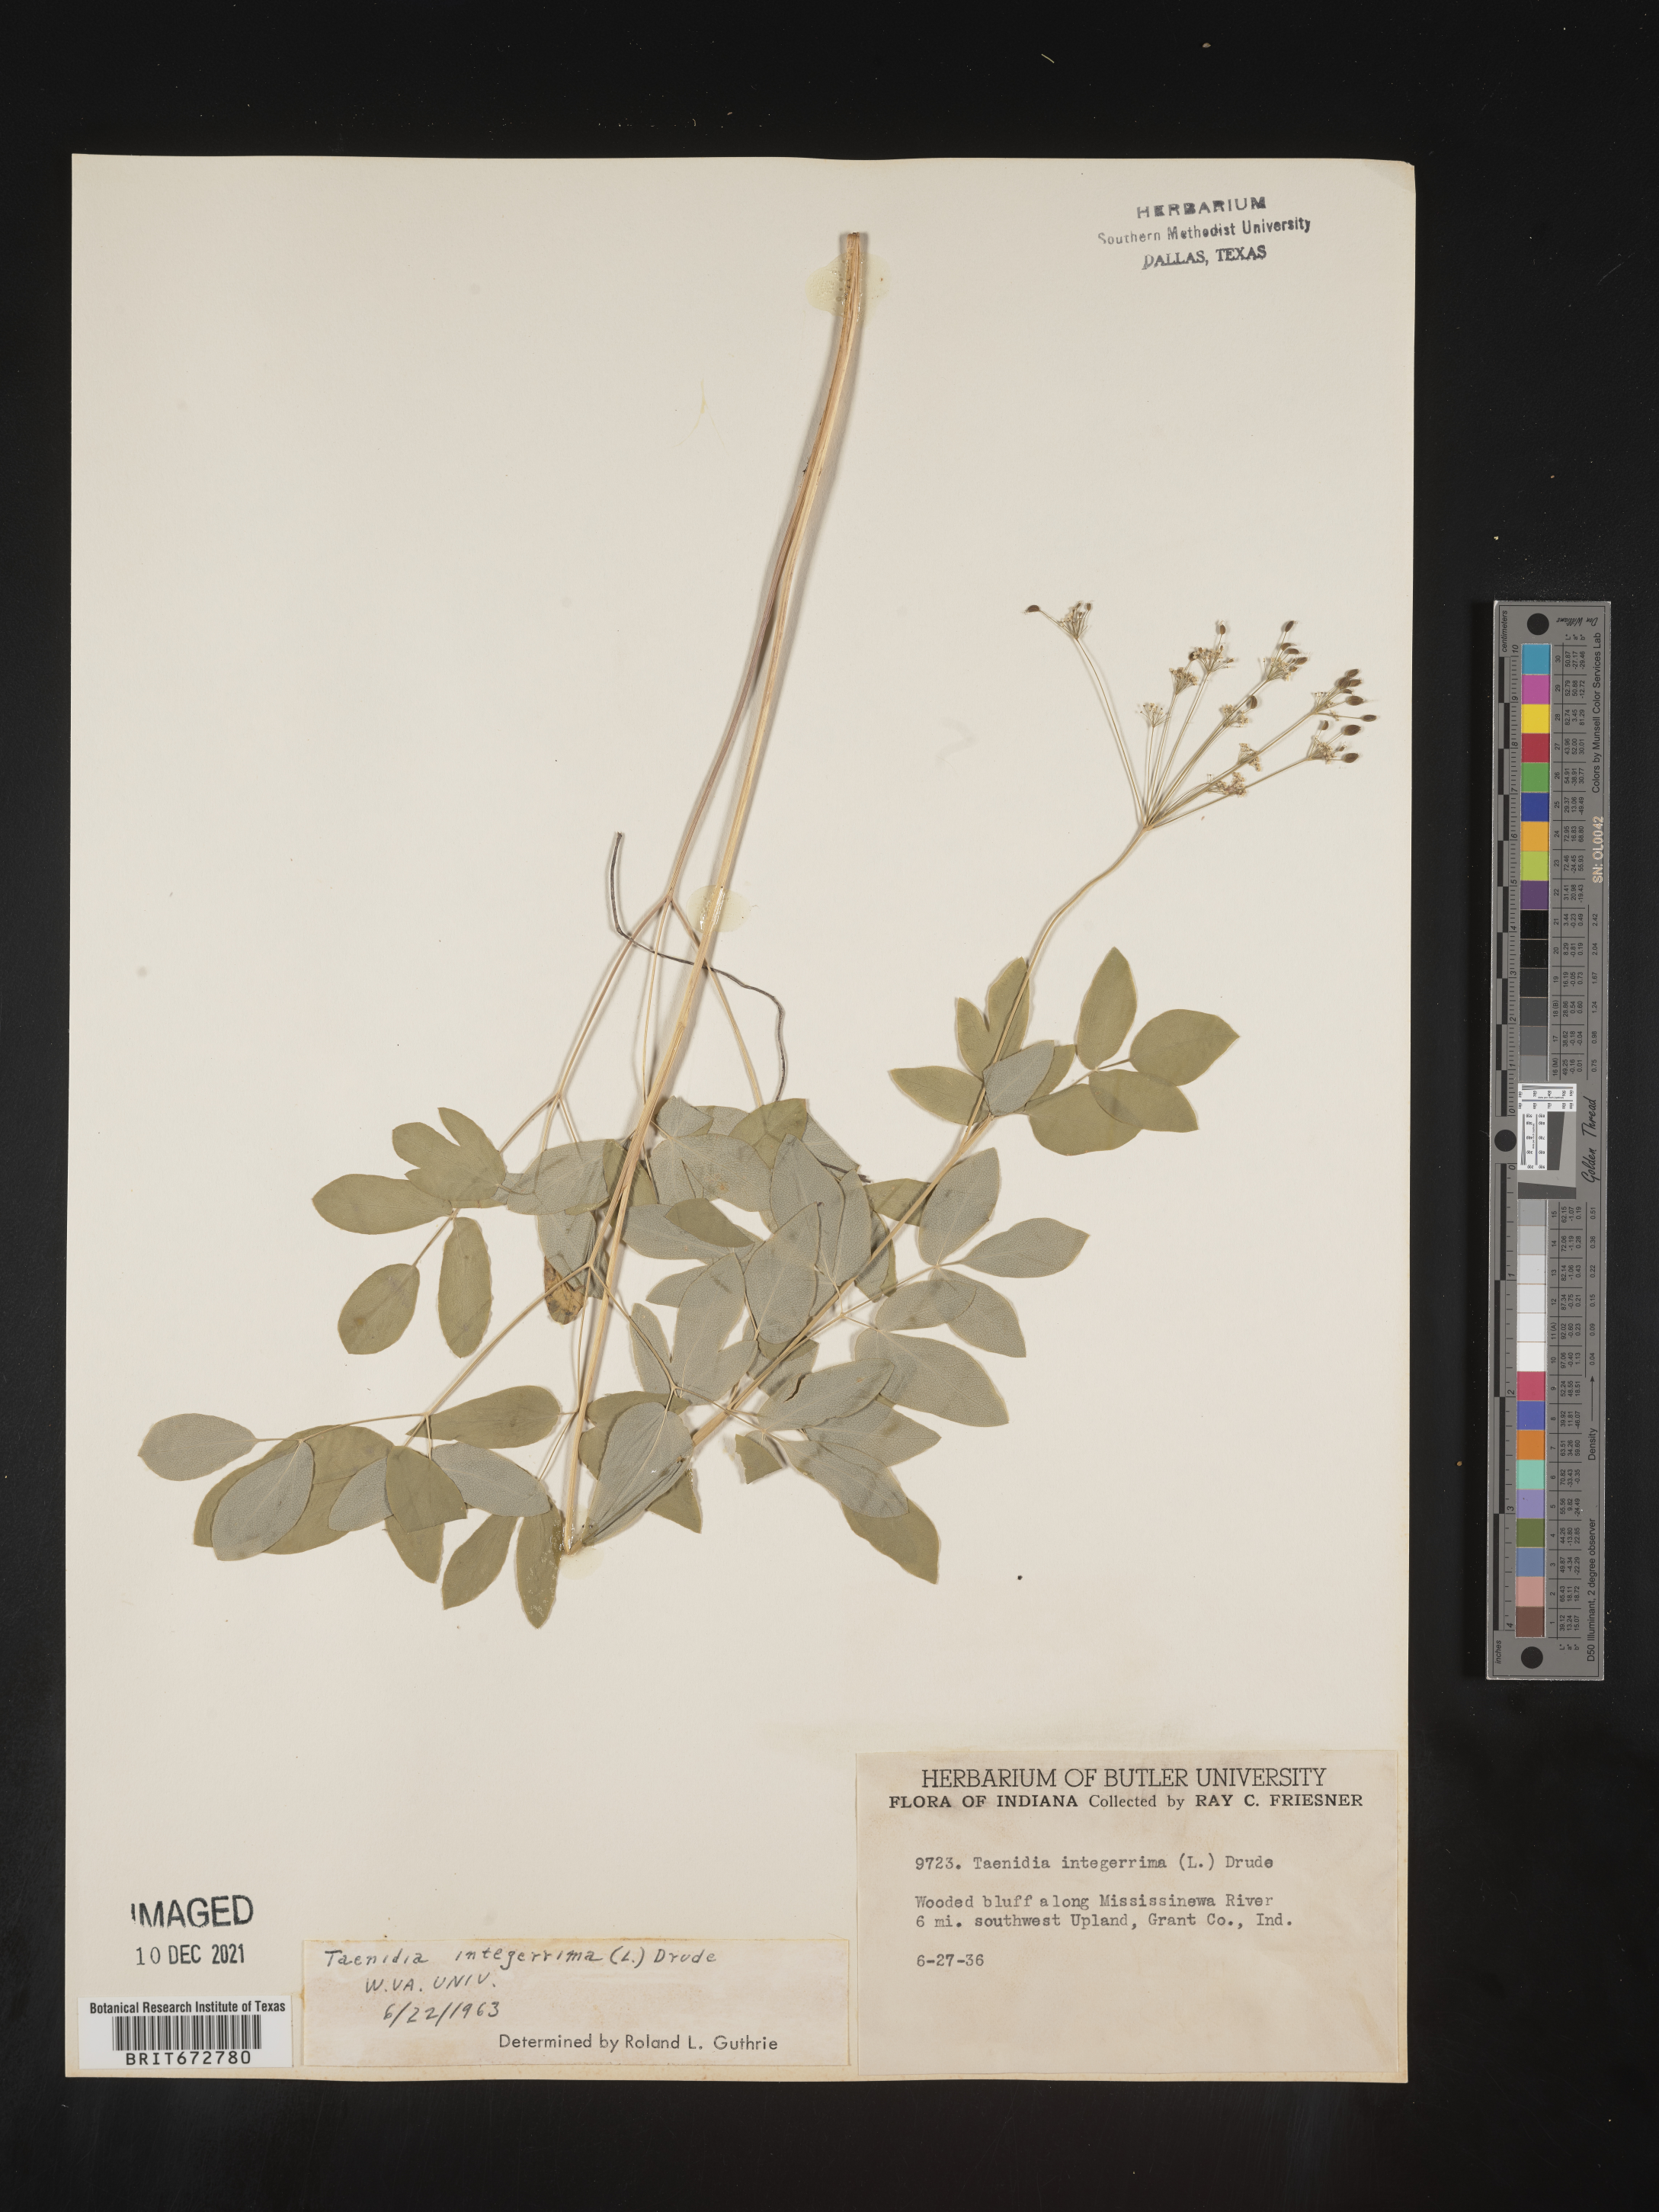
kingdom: Plantae
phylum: Tracheophyta
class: Magnoliopsida
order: Apiales
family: Apiaceae
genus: Taenidia
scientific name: Taenidia integerrima
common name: Golden alexander
